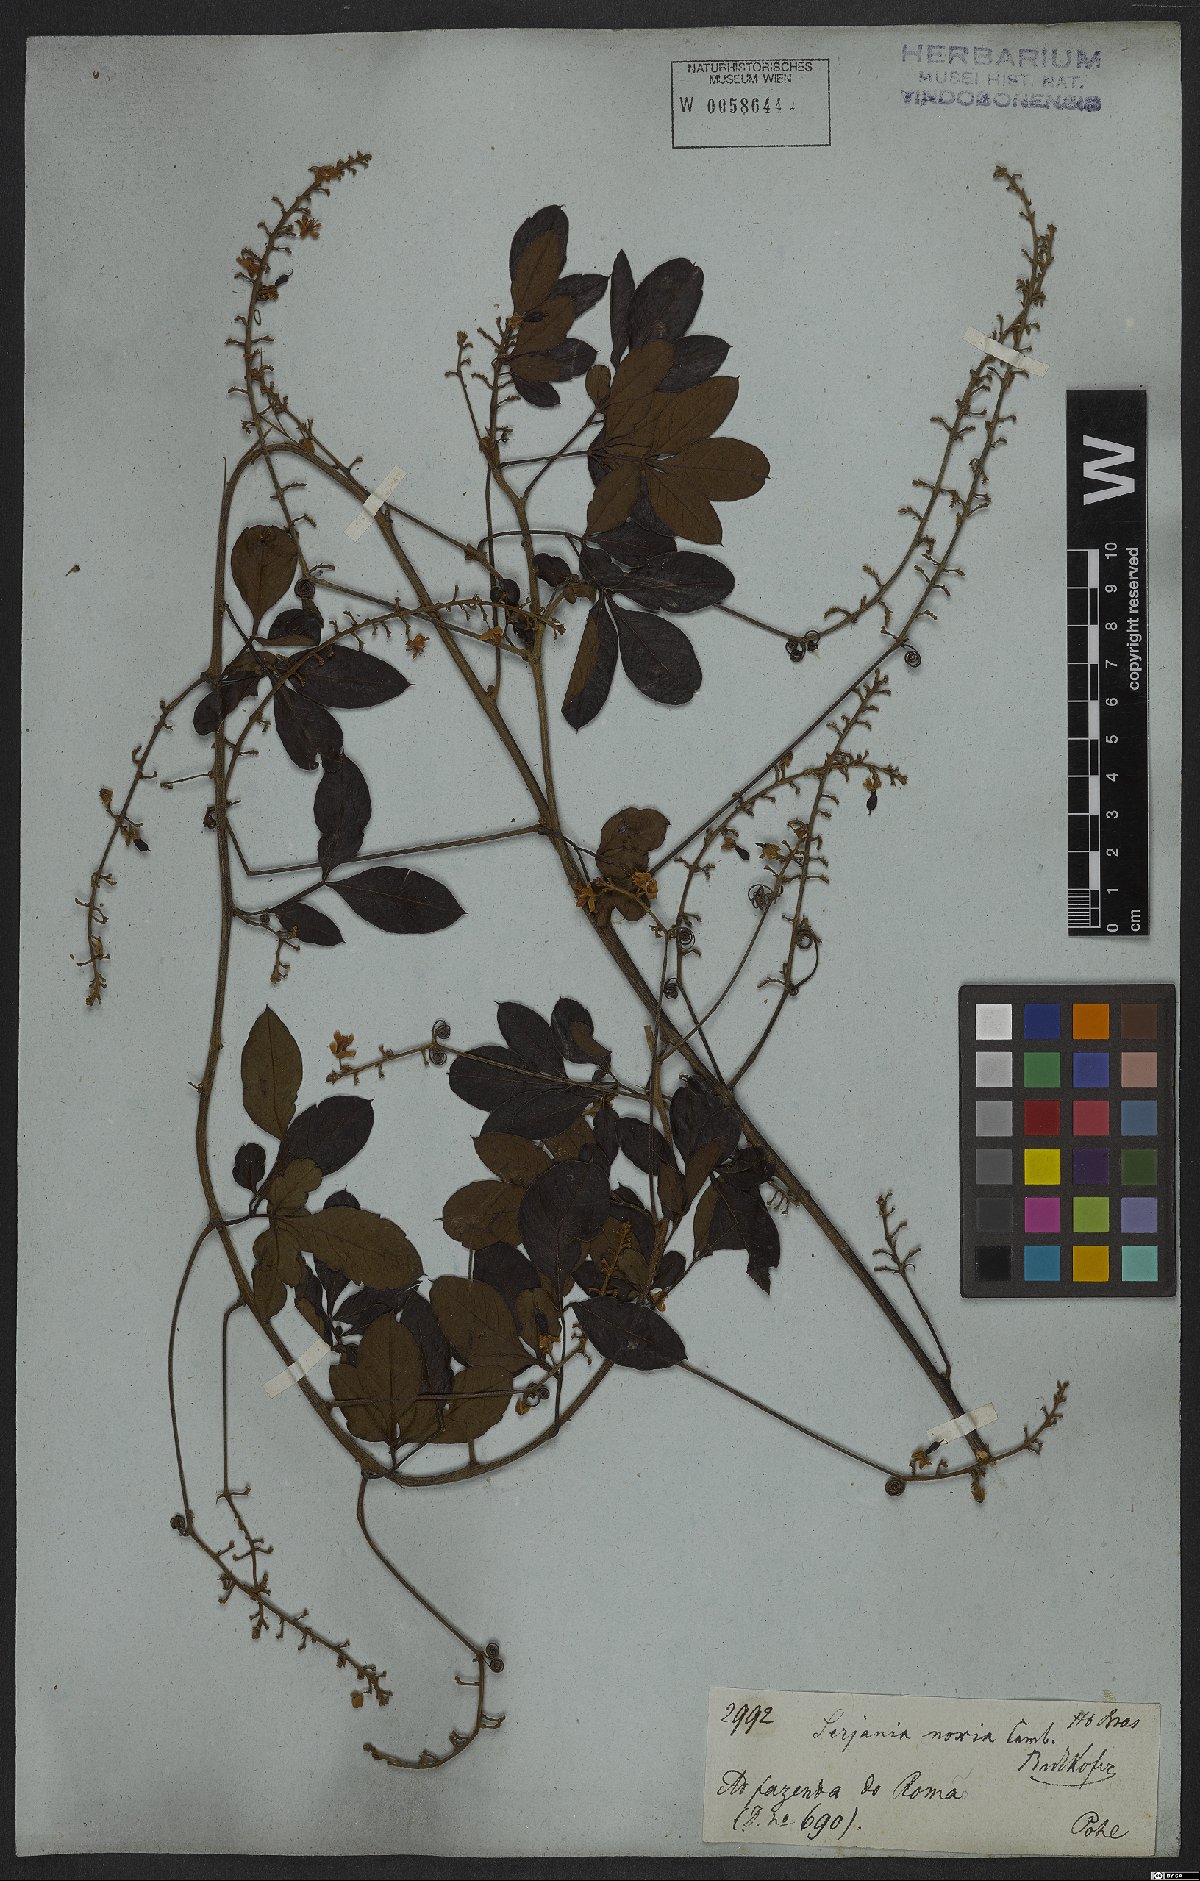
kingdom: Plantae
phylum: Tracheophyta
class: Magnoliopsida
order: Sapindales
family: Sapindaceae
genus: Serjania
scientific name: Serjania noxia
